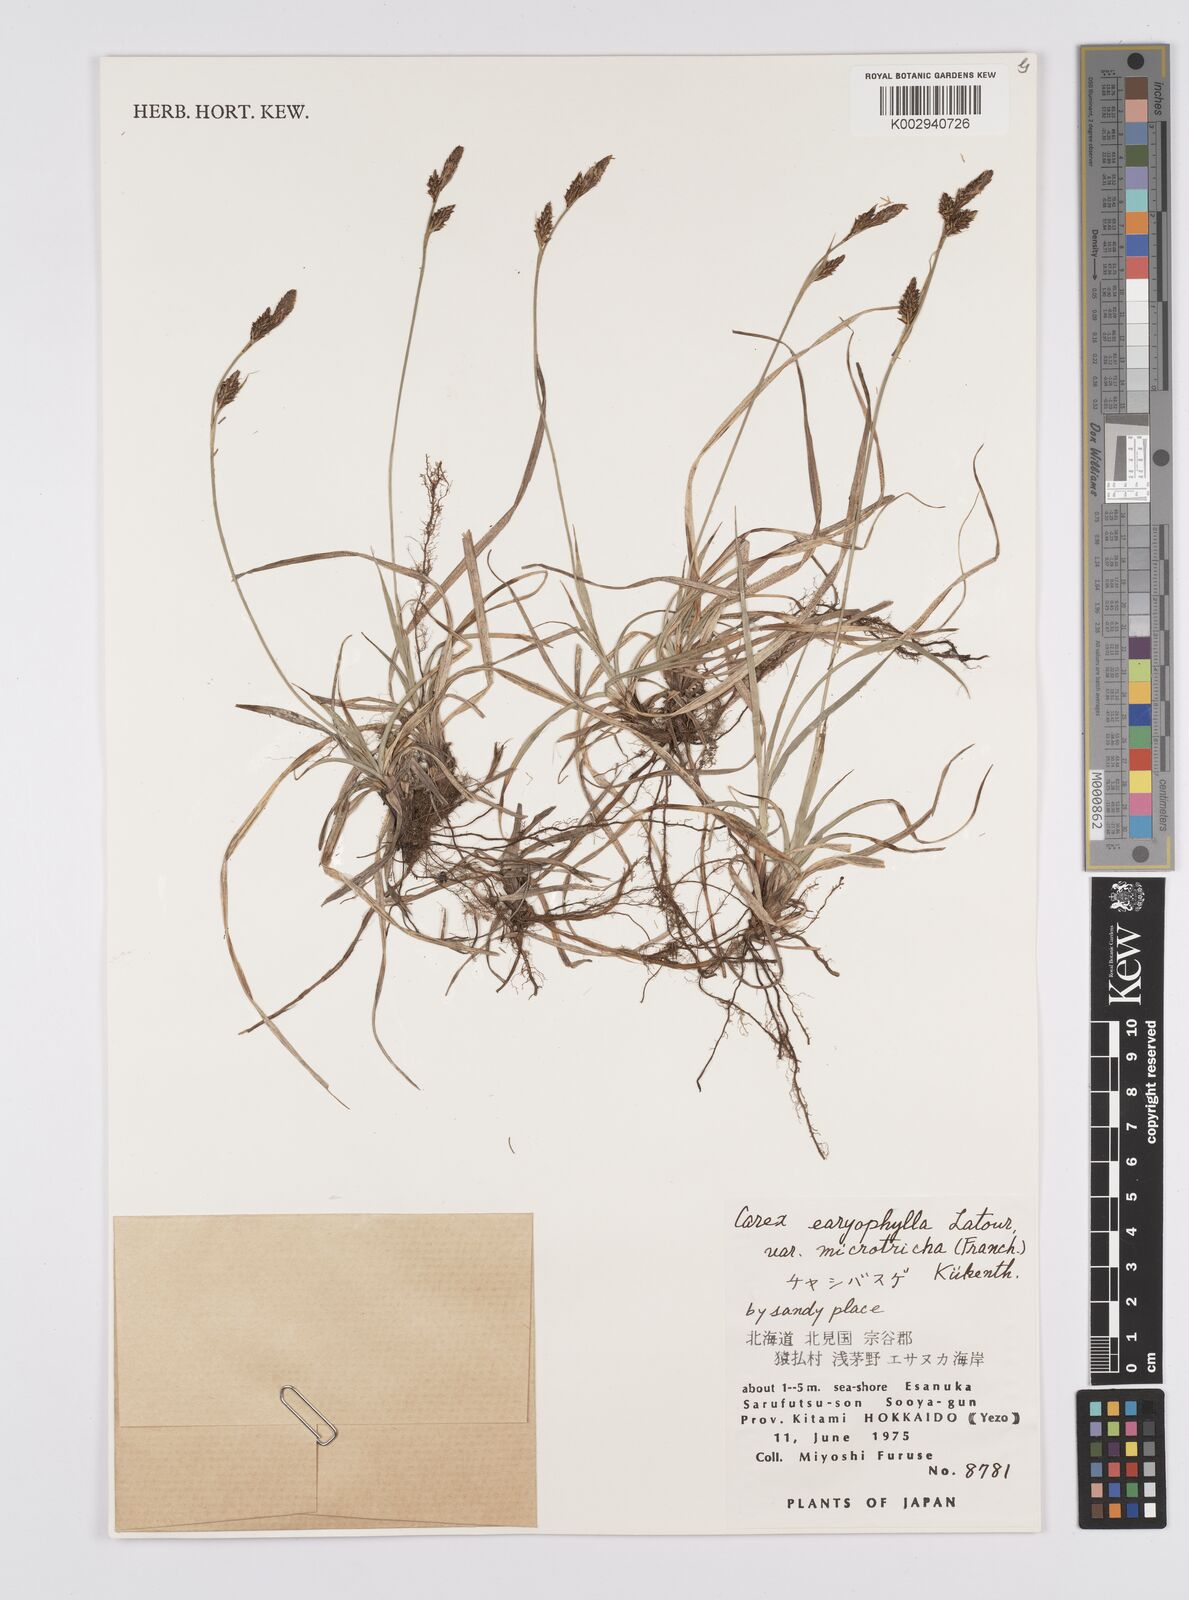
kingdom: Plantae
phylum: Tracheophyta
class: Liliopsida
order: Poales
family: Cyperaceae
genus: Carex
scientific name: Carex caryophyllea
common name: Spring sedge
